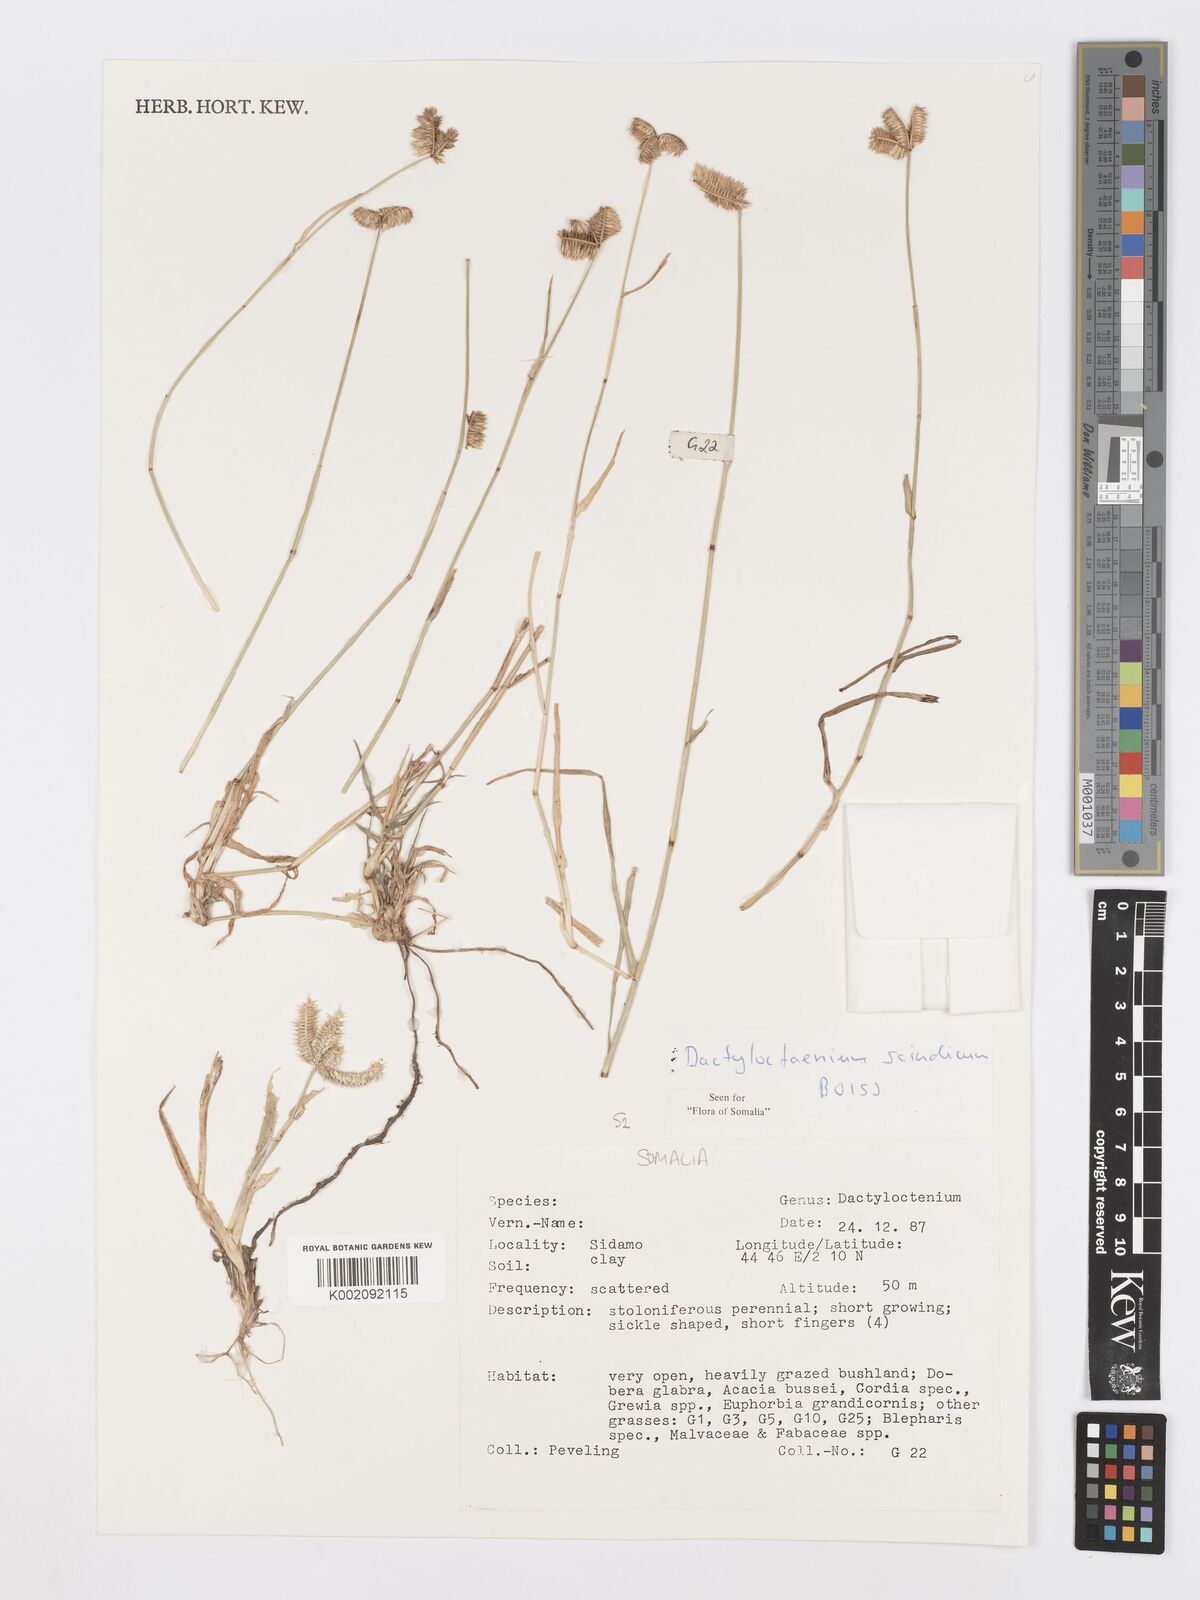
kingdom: Plantae
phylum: Tracheophyta
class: Liliopsida
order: Poales
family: Poaceae
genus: Dactyloctenium
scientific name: Dactyloctenium scindicum
